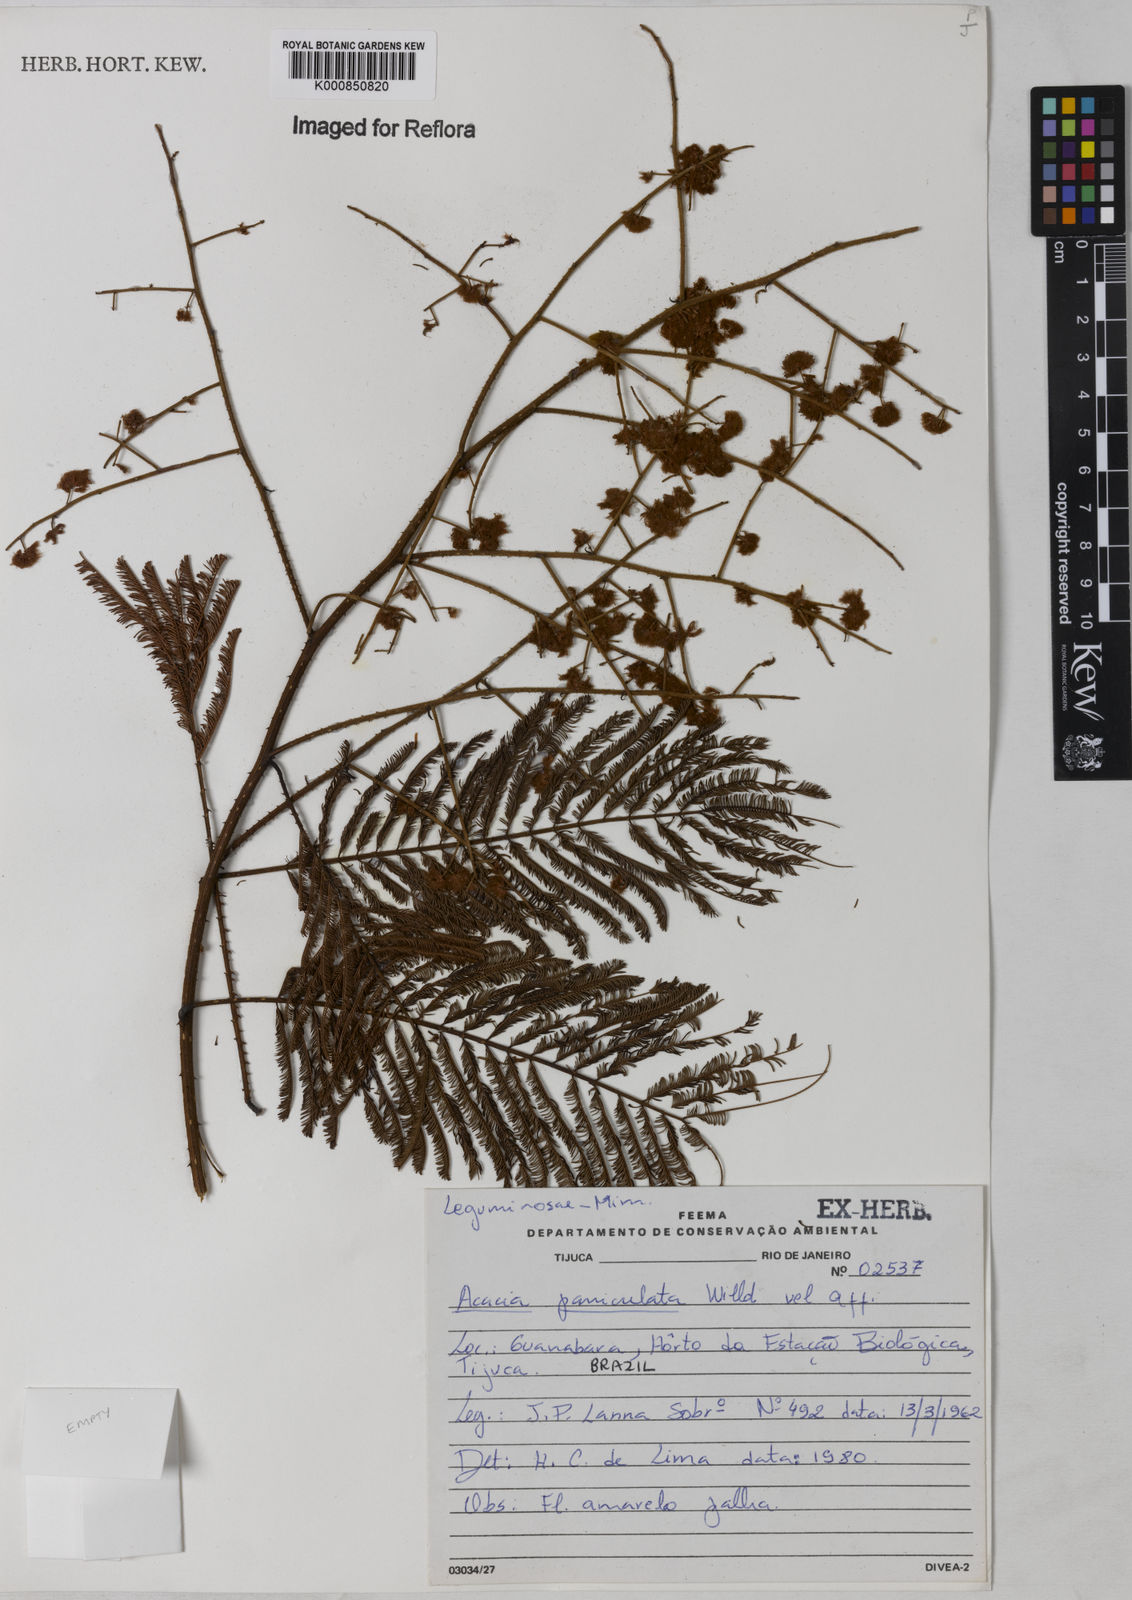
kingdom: Plantae
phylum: Tracheophyta
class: Magnoliopsida
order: Fabales
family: Fabaceae
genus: Senegalia
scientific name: Senegalia tenuifolia
